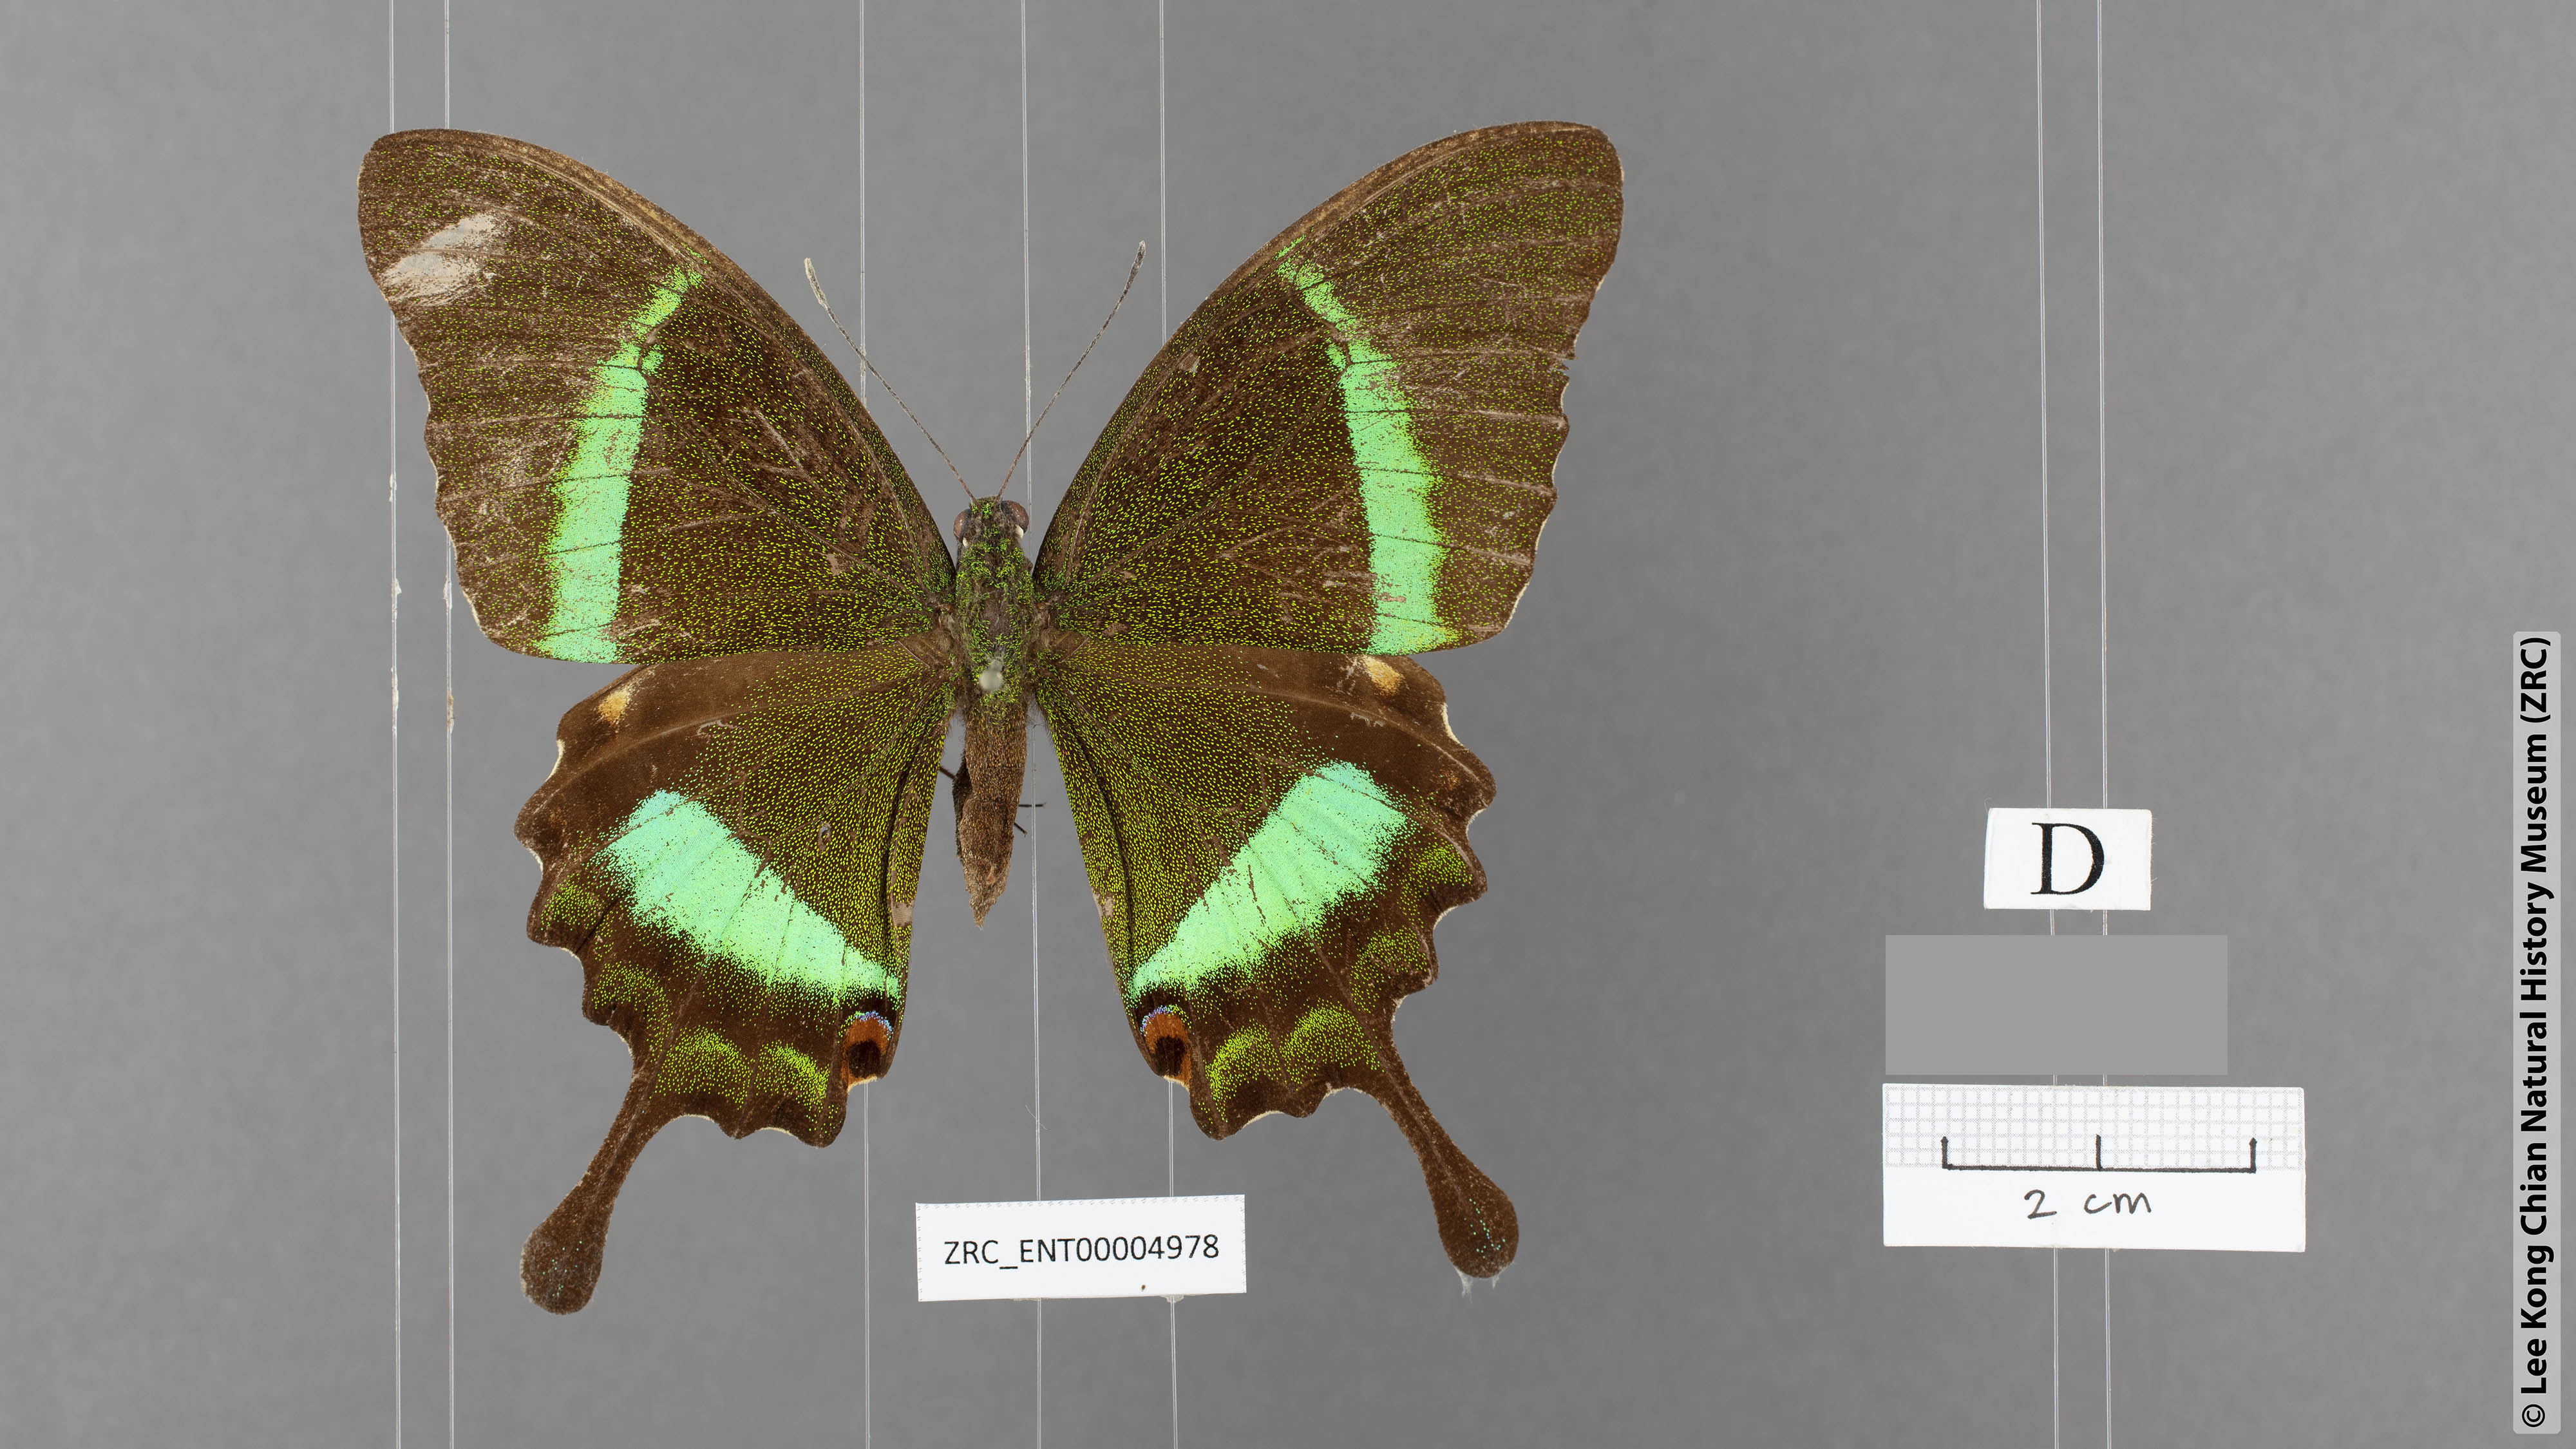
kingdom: Animalia
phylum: Arthropoda
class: Insecta
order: Lepidoptera
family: Papilionidae
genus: Papilio
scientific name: Papilio palinurus
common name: Banded peacock
